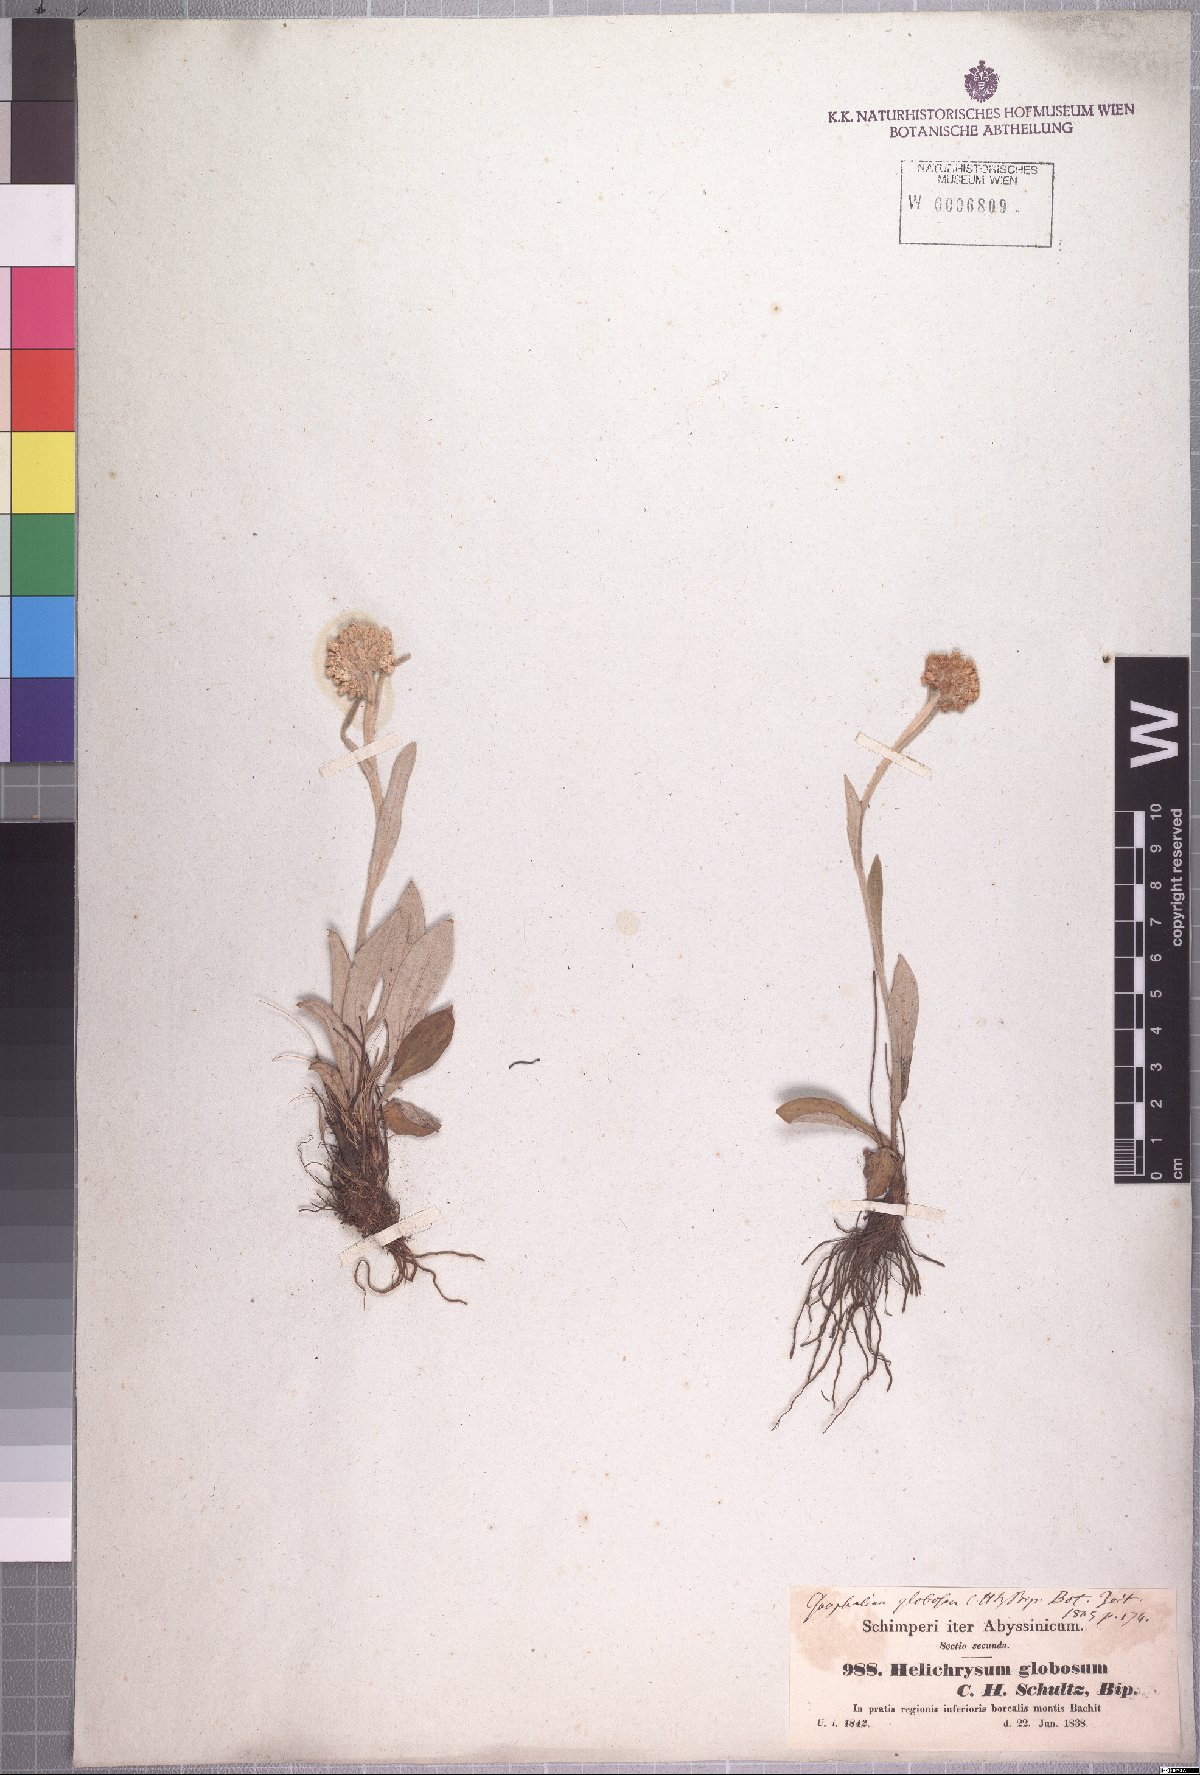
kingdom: Plantae
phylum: Tracheophyta
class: Magnoliopsida
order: Asterales
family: Asteraceae
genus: Helichrysum
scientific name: Helichrysum globosum
